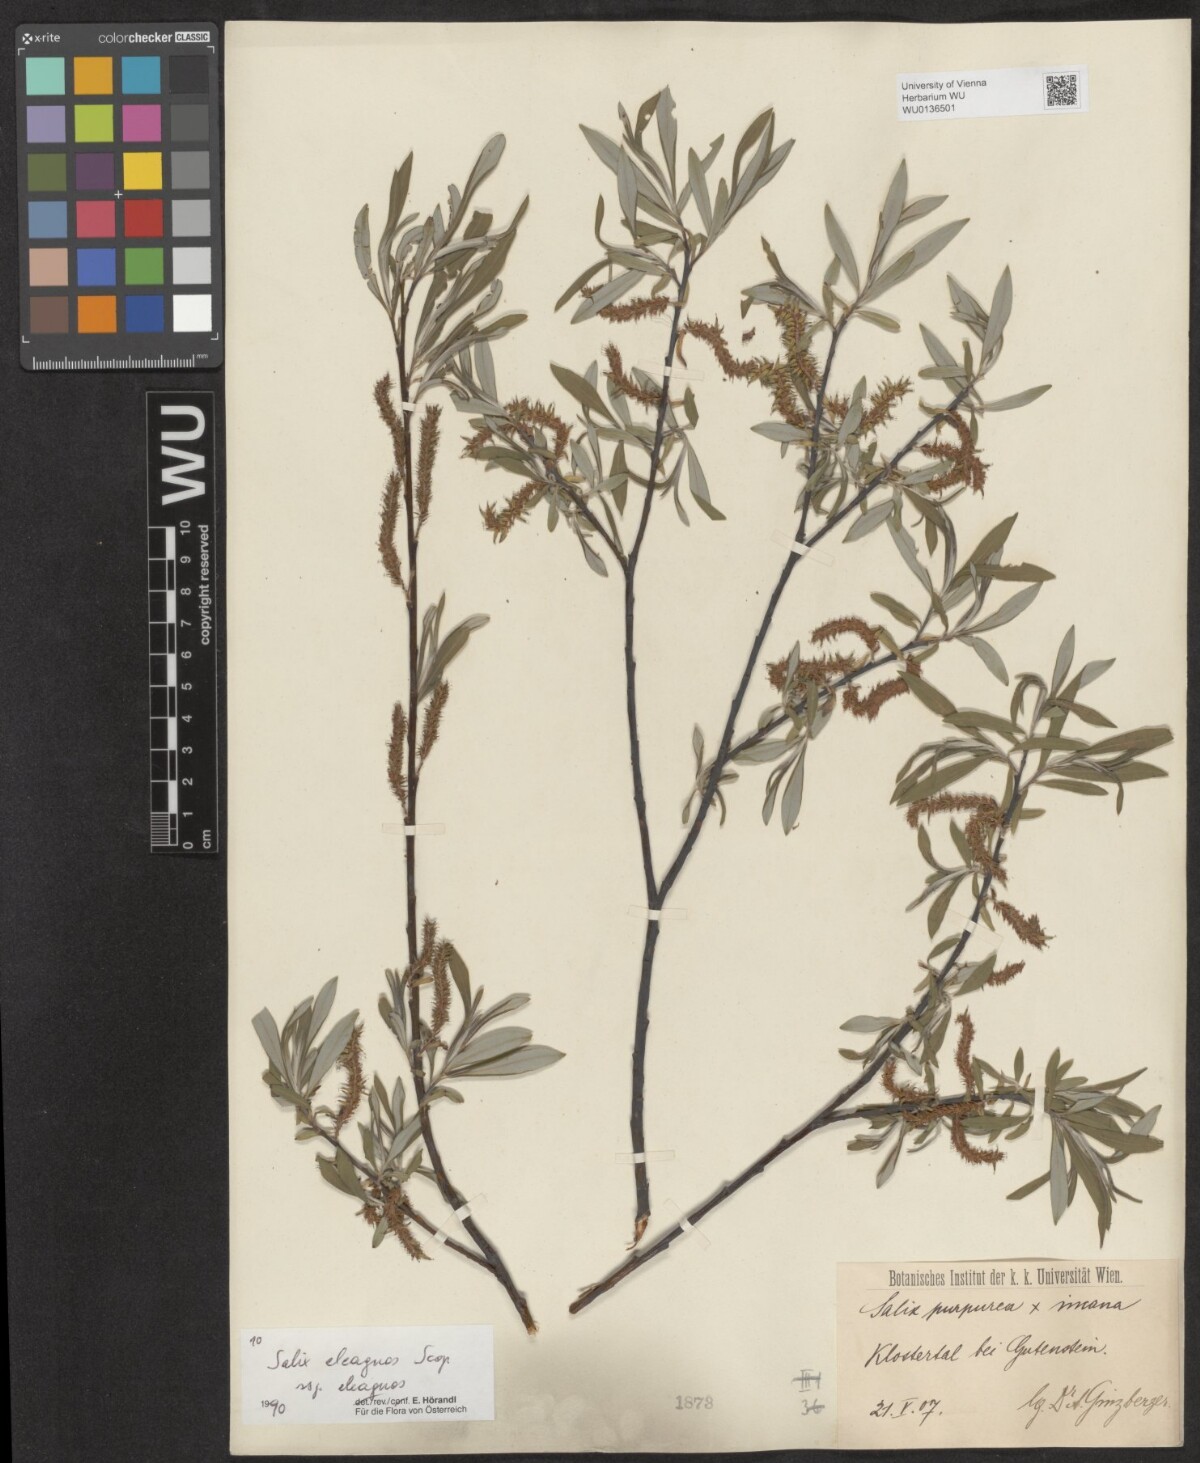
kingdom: Plantae
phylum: Tracheophyta
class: Magnoliopsida
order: Malpighiales
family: Salicaceae
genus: Salix
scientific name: Salix eleagnos
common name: Elaeagnus willow
